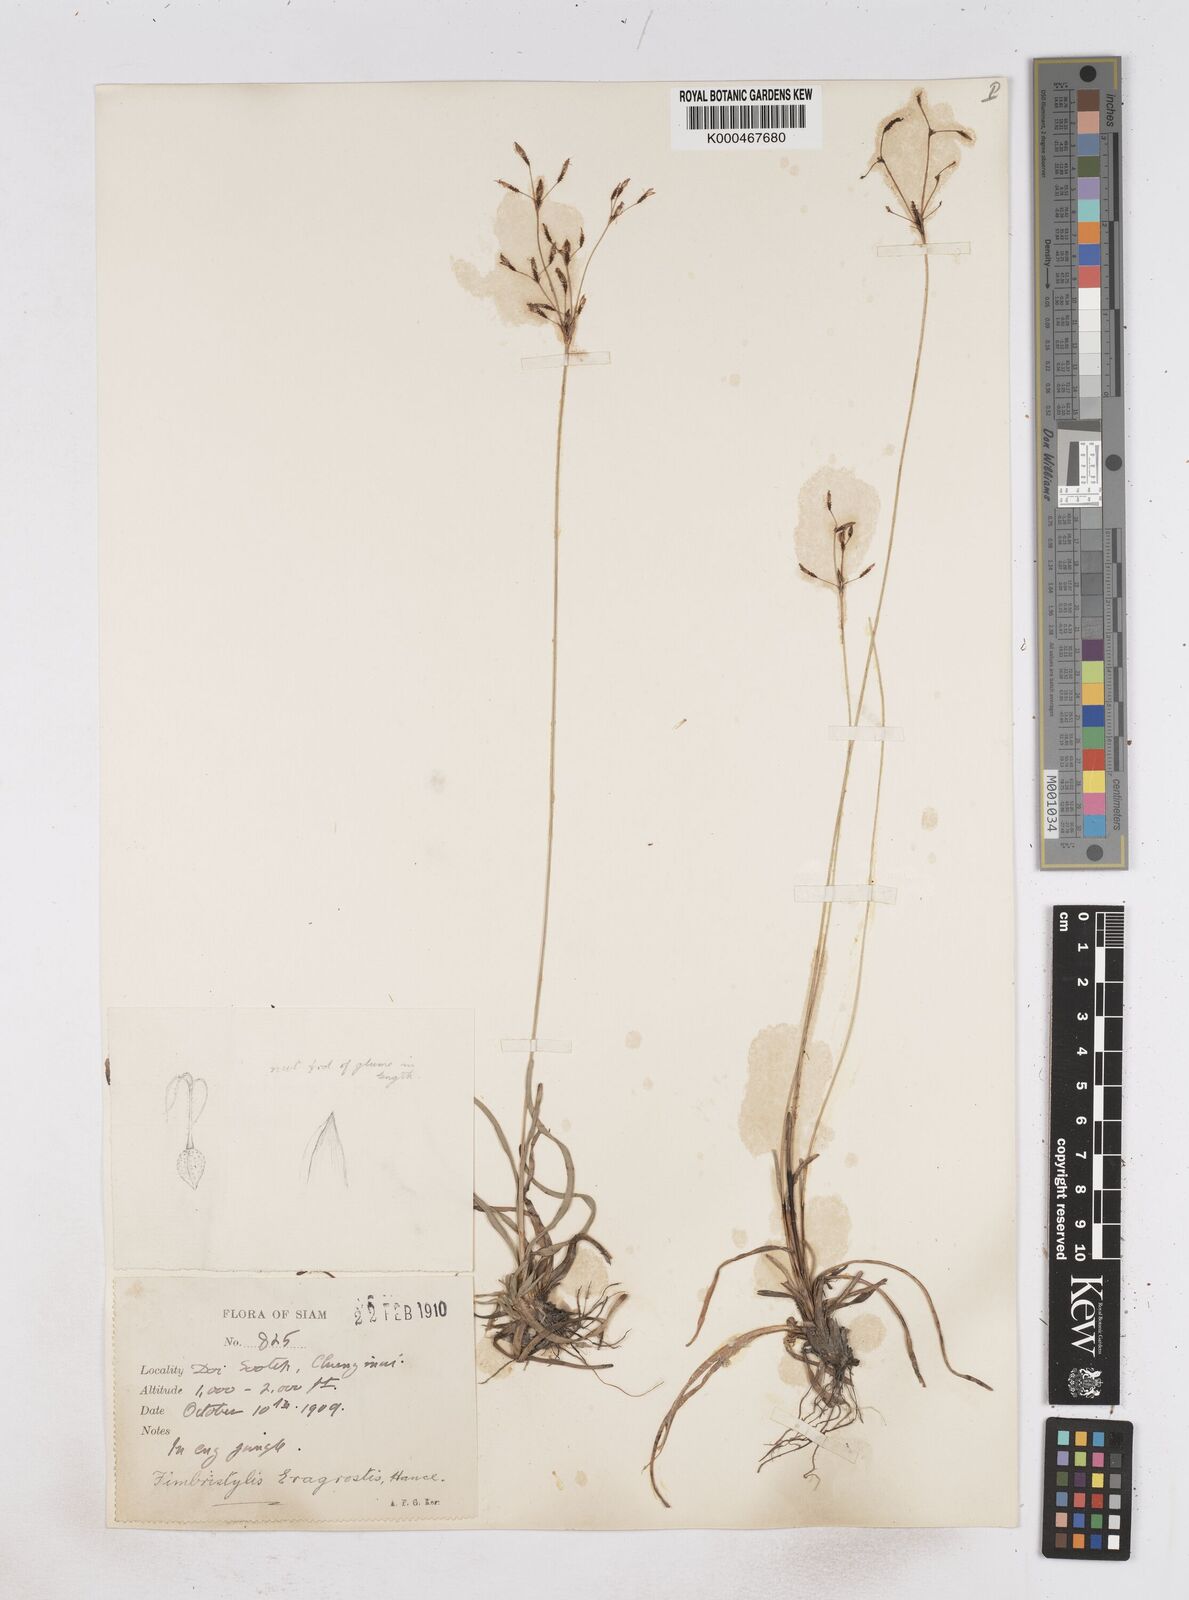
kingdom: Plantae
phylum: Tracheophyta
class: Liliopsida
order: Poales
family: Cyperaceae
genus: Fimbristylis
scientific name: Fimbristylis eragrostis
